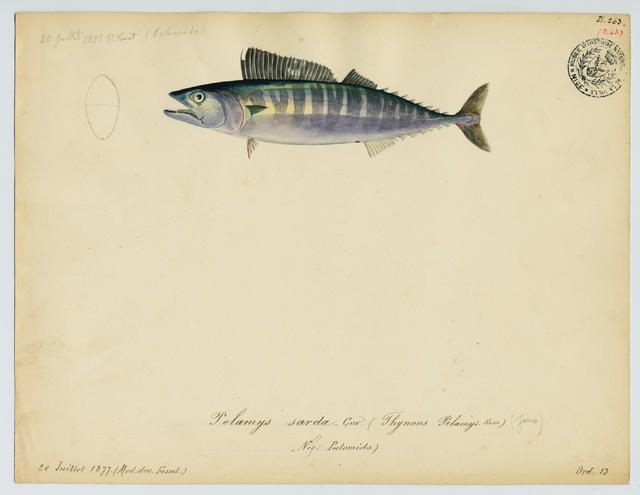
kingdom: Animalia
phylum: Chordata
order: Perciformes
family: Scombridae
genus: Sarda
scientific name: Sarda sarda
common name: Atlantic bonito
